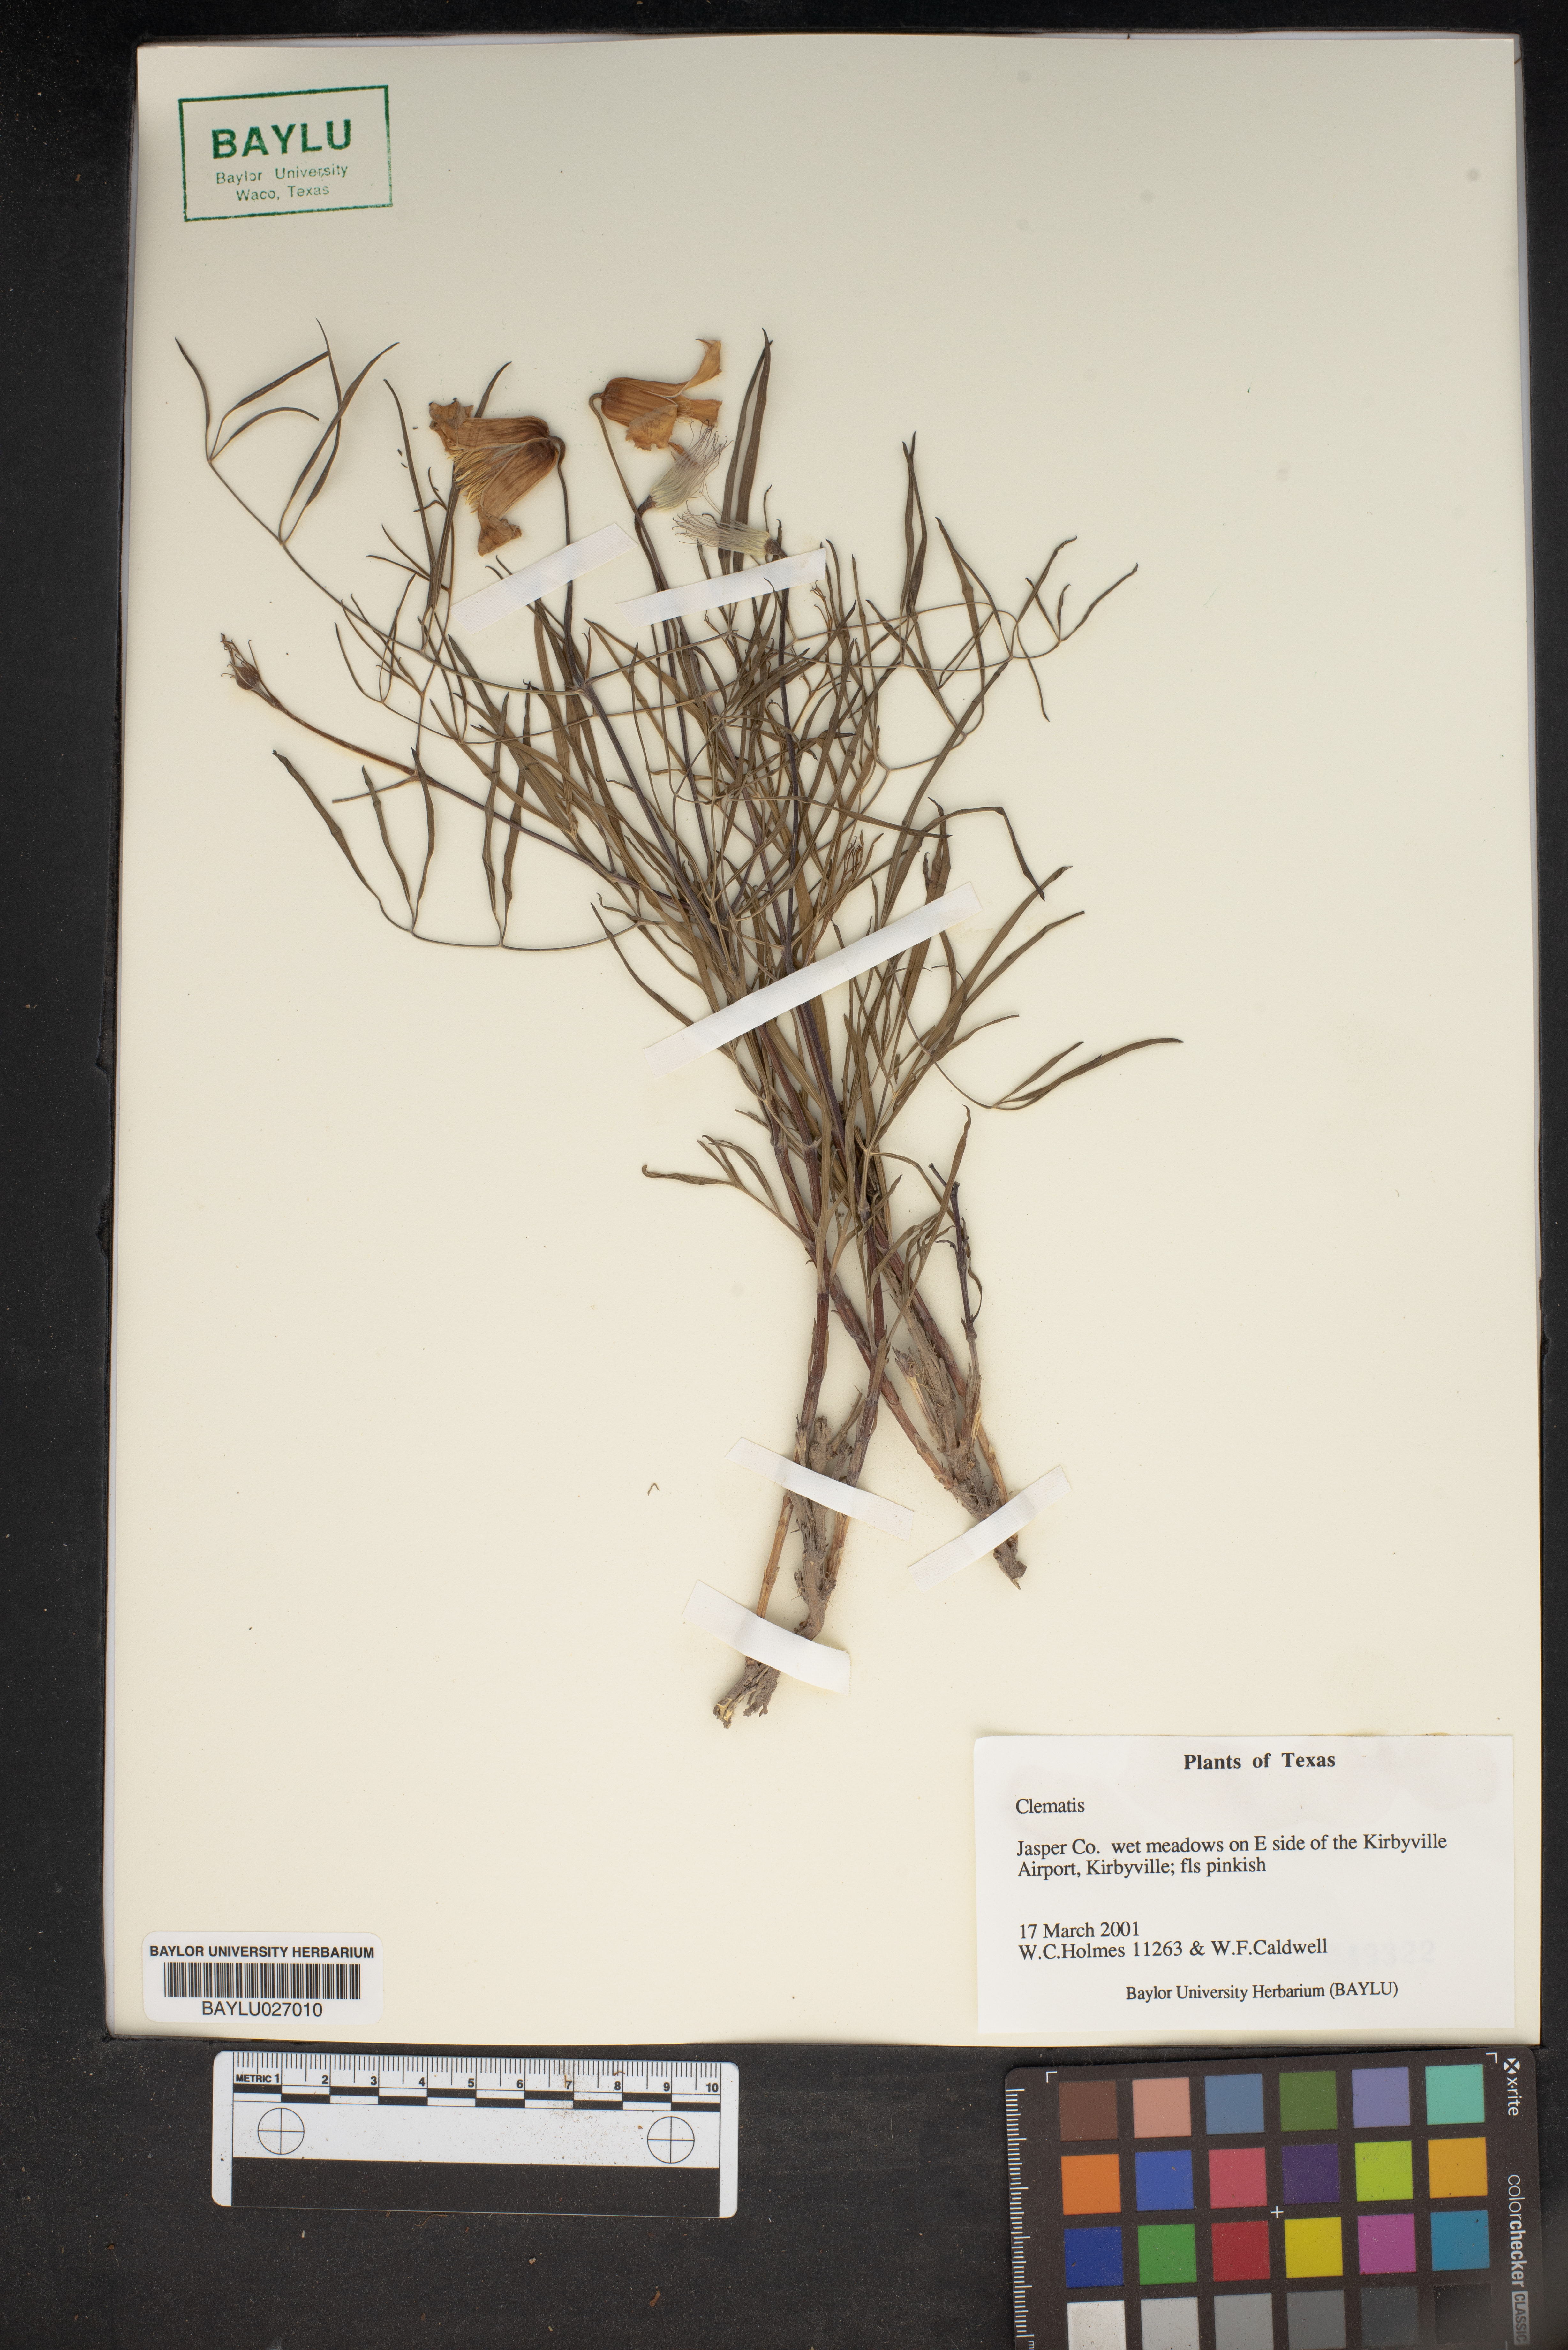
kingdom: Plantae
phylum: Tracheophyta
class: Magnoliopsida
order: Ranunculales
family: Ranunculaceae
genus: Clematis
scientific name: Clematis
